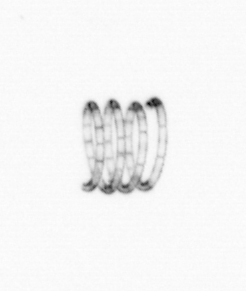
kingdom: Chromista
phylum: Ochrophyta
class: Bacillariophyceae
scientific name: Bacillariophyceae
